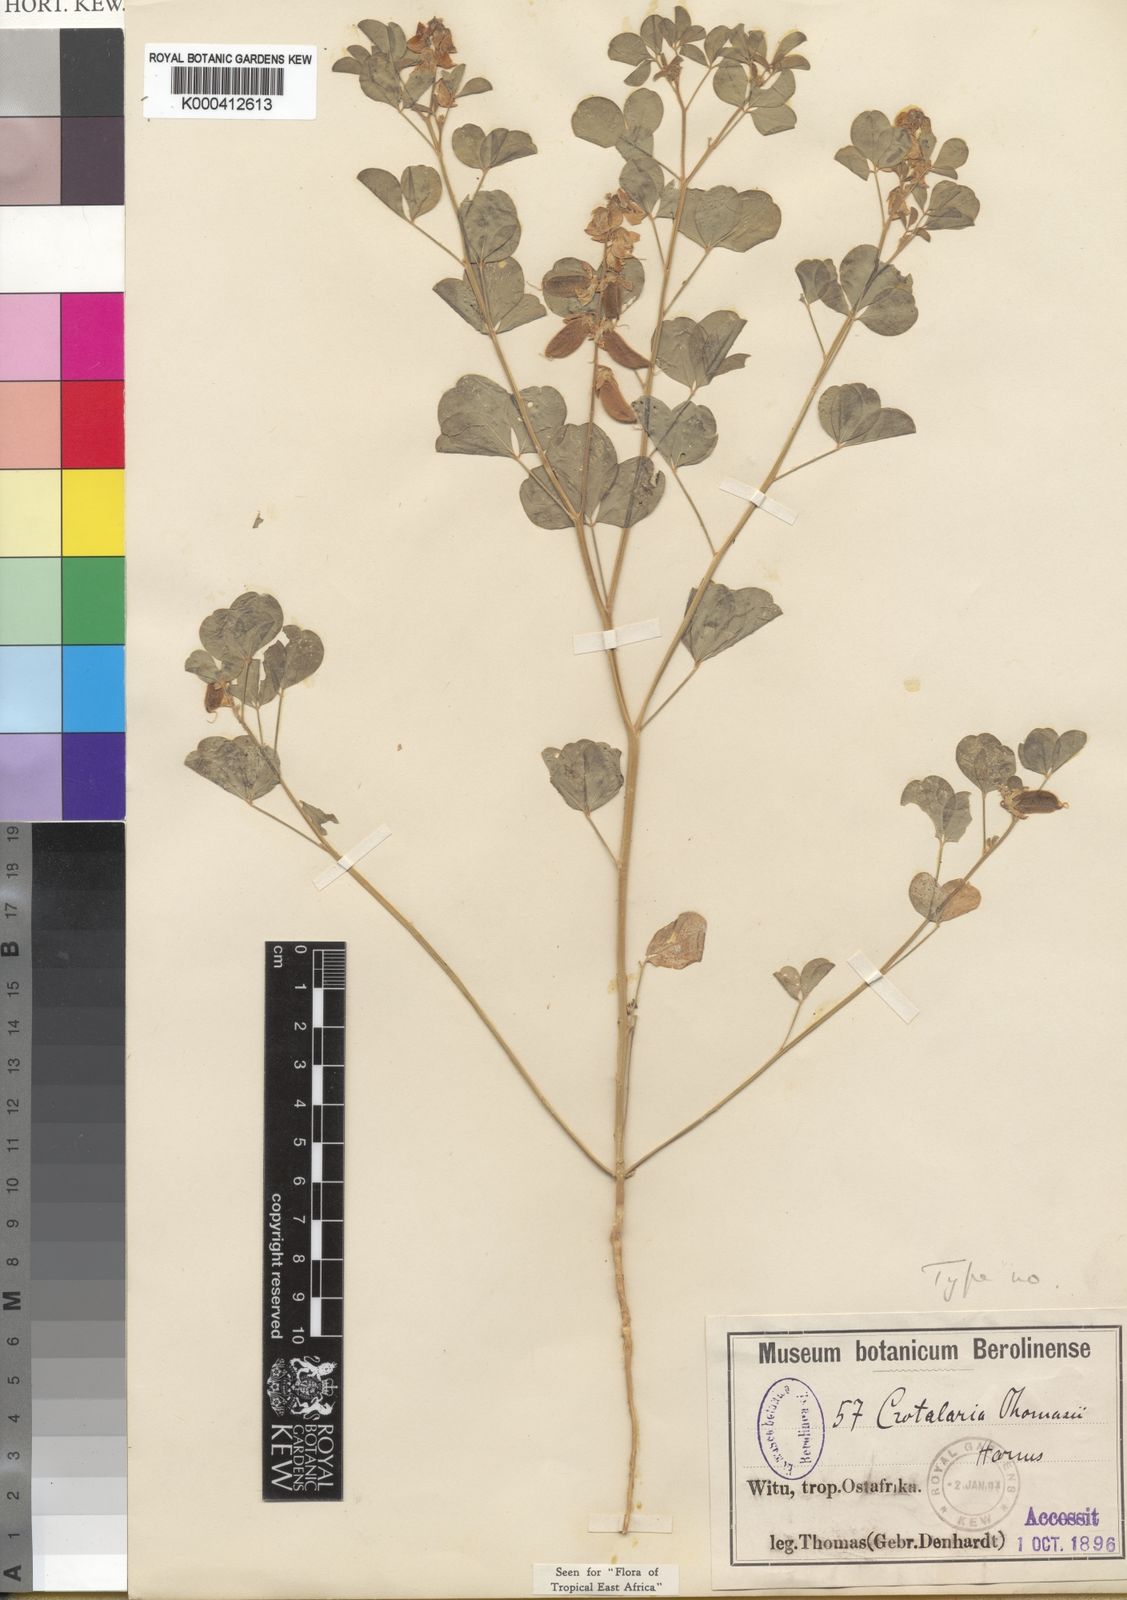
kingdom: Plantae
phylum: Tracheophyta
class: Magnoliopsida
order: Fabales
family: Fabaceae
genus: Crotalaria
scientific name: Crotalaria thomasii
